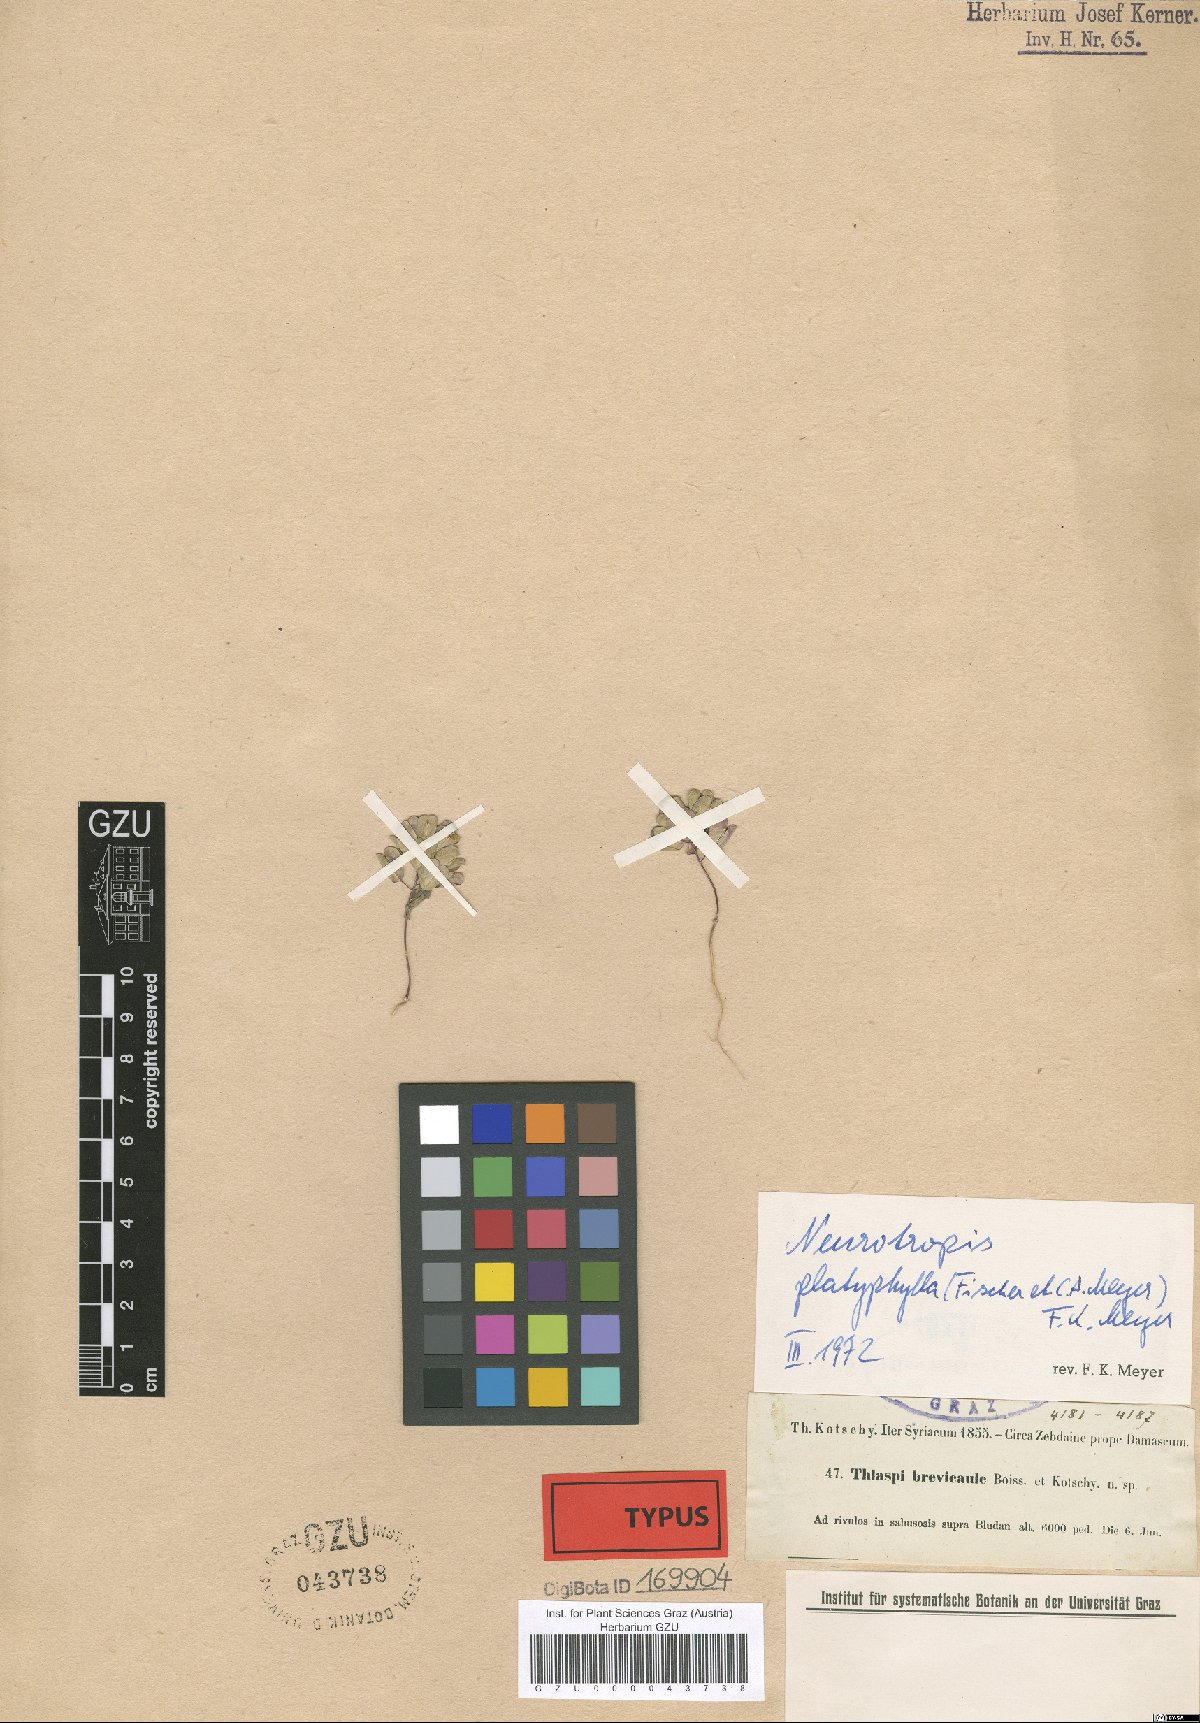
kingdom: Plantae
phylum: Tracheophyta
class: Magnoliopsida
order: Brassicales
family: Brassicaceae
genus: Noccaea
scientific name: Noccaea platycarpa
